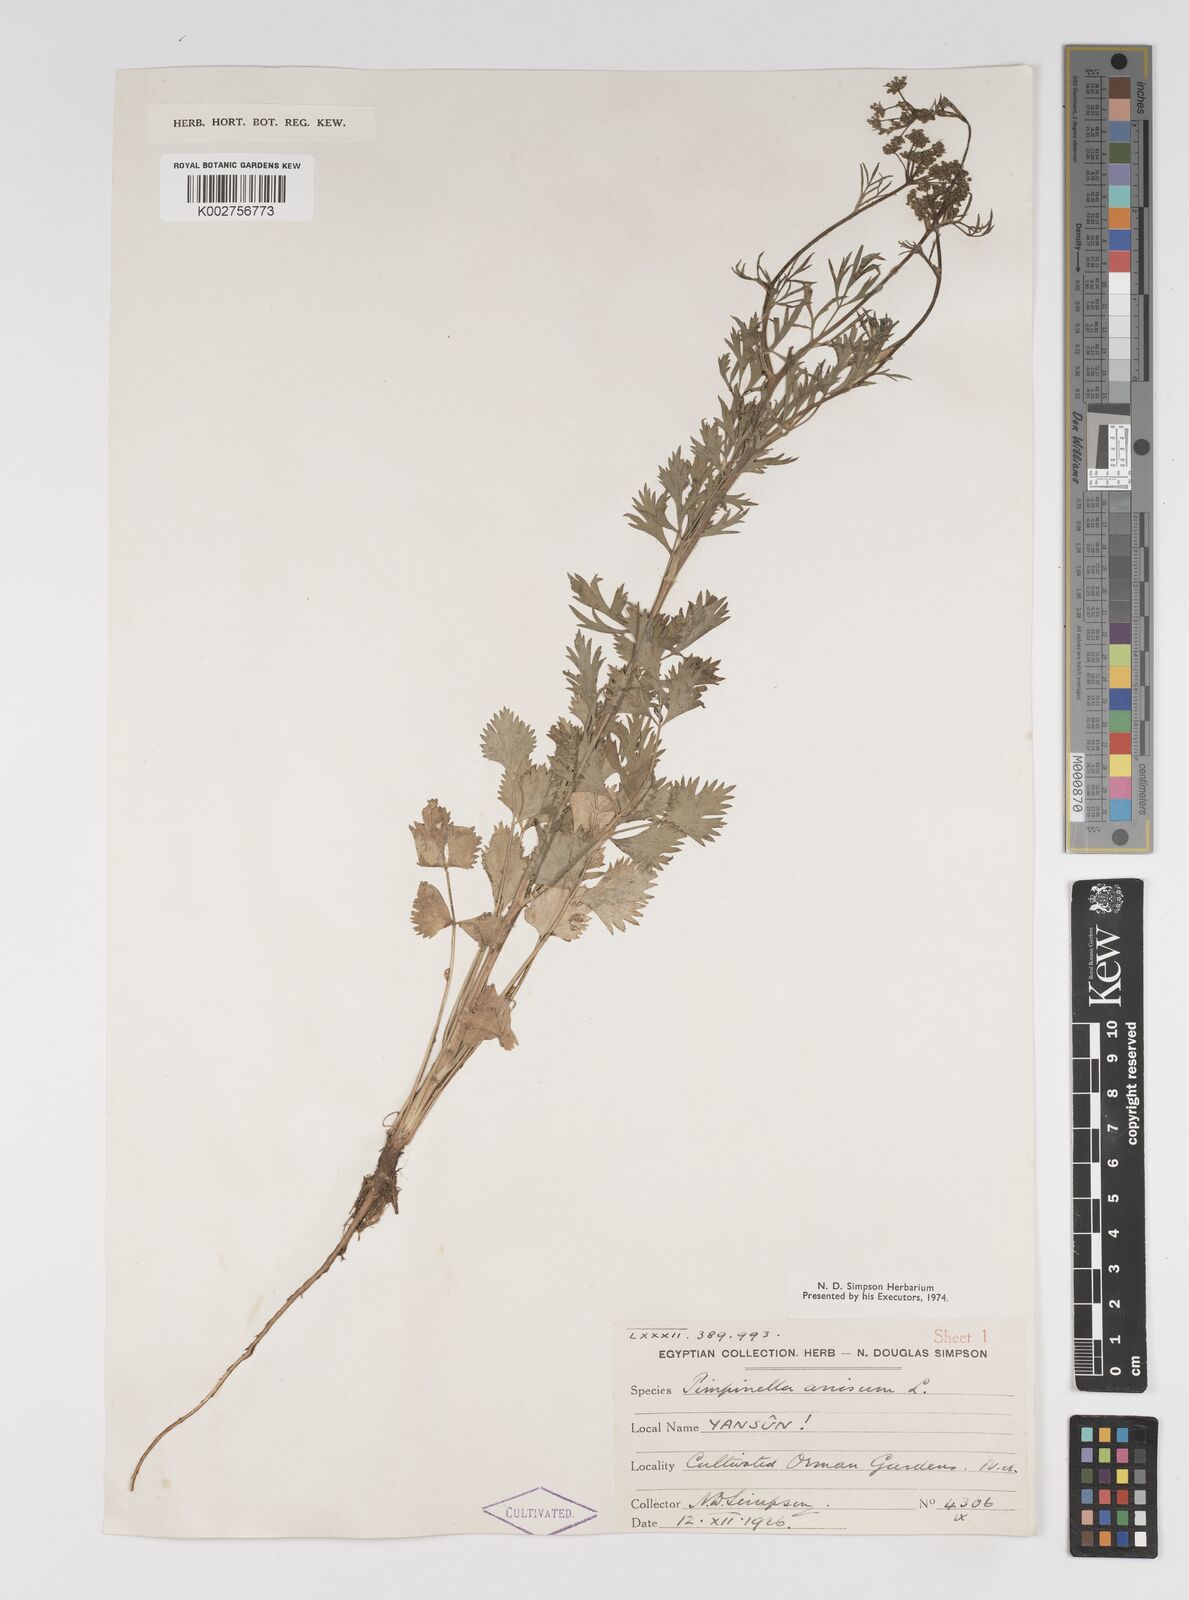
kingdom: Plantae
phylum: Tracheophyta
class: Magnoliopsida
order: Apiales
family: Apiaceae
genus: Pimpinella
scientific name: Pimpinella anisum
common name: Anise burnet saxifrage
